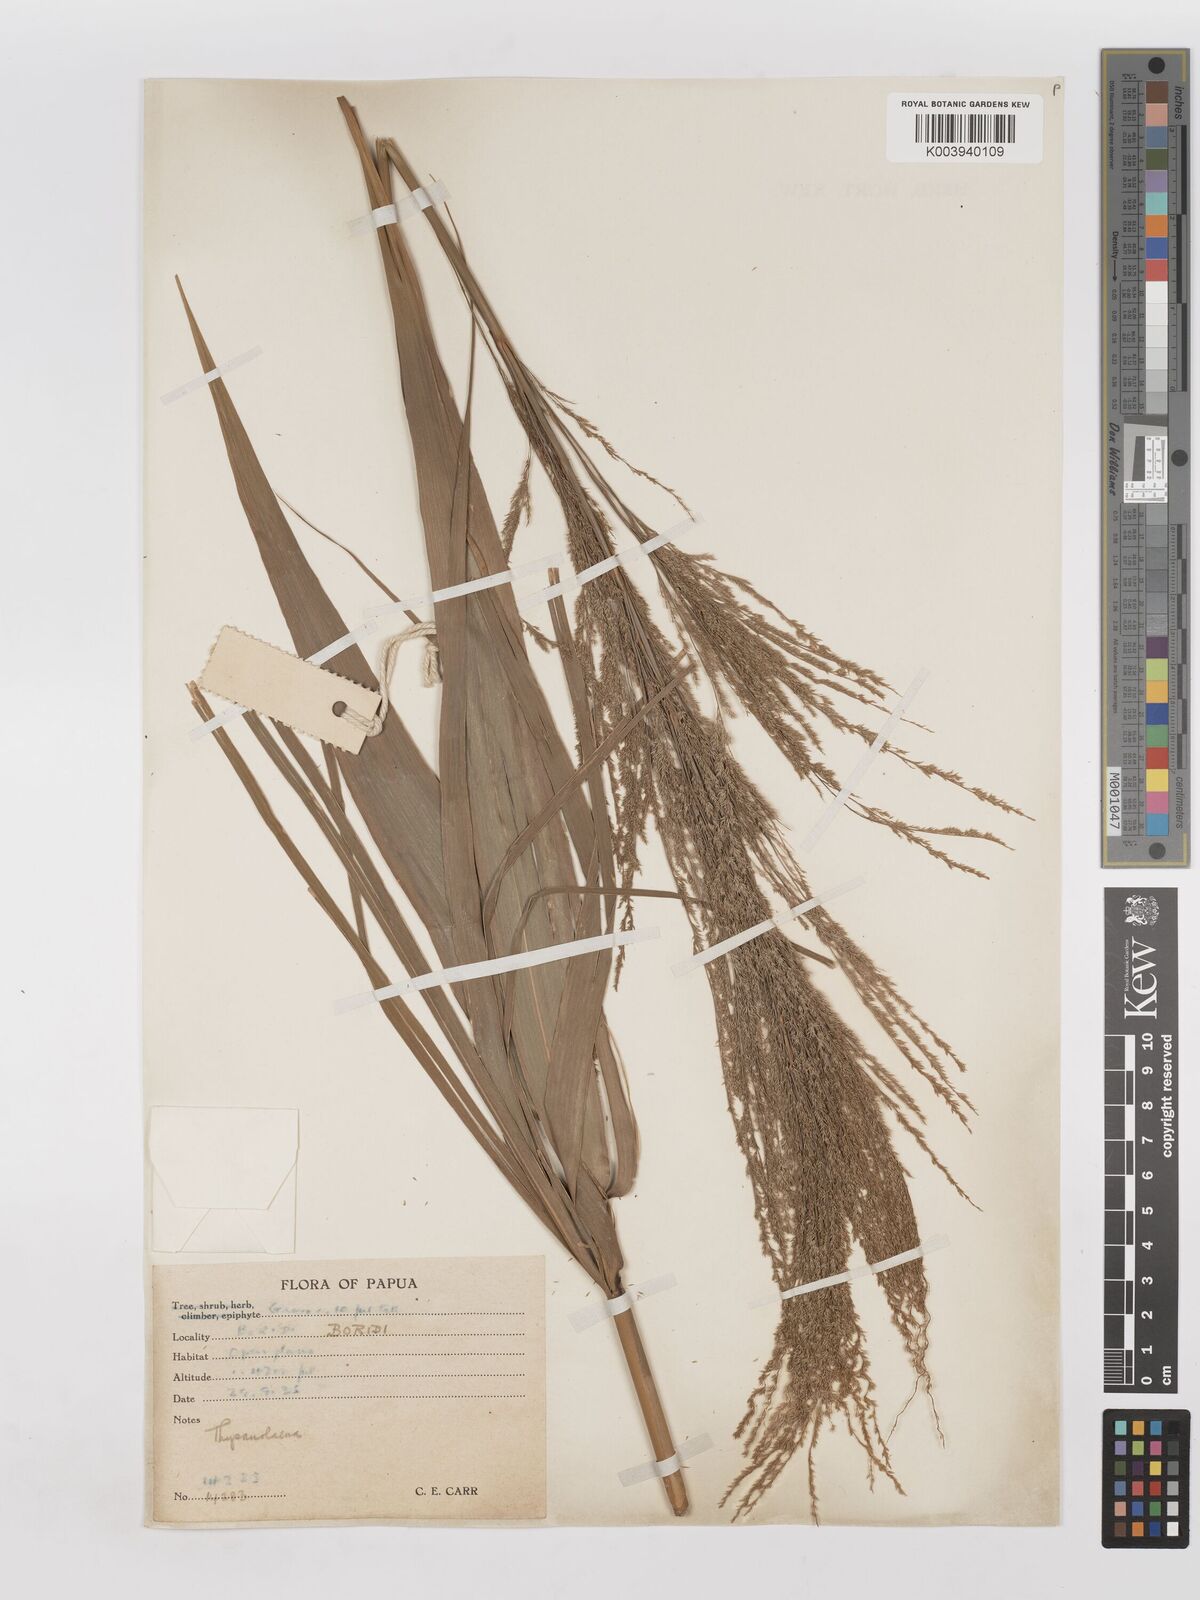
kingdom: Plantae
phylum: Tracheophyta
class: Liliopsida
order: Poales
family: Poaceae
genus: Thysanolaena
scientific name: Thysanolaena latifolia
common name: Tiger grass
